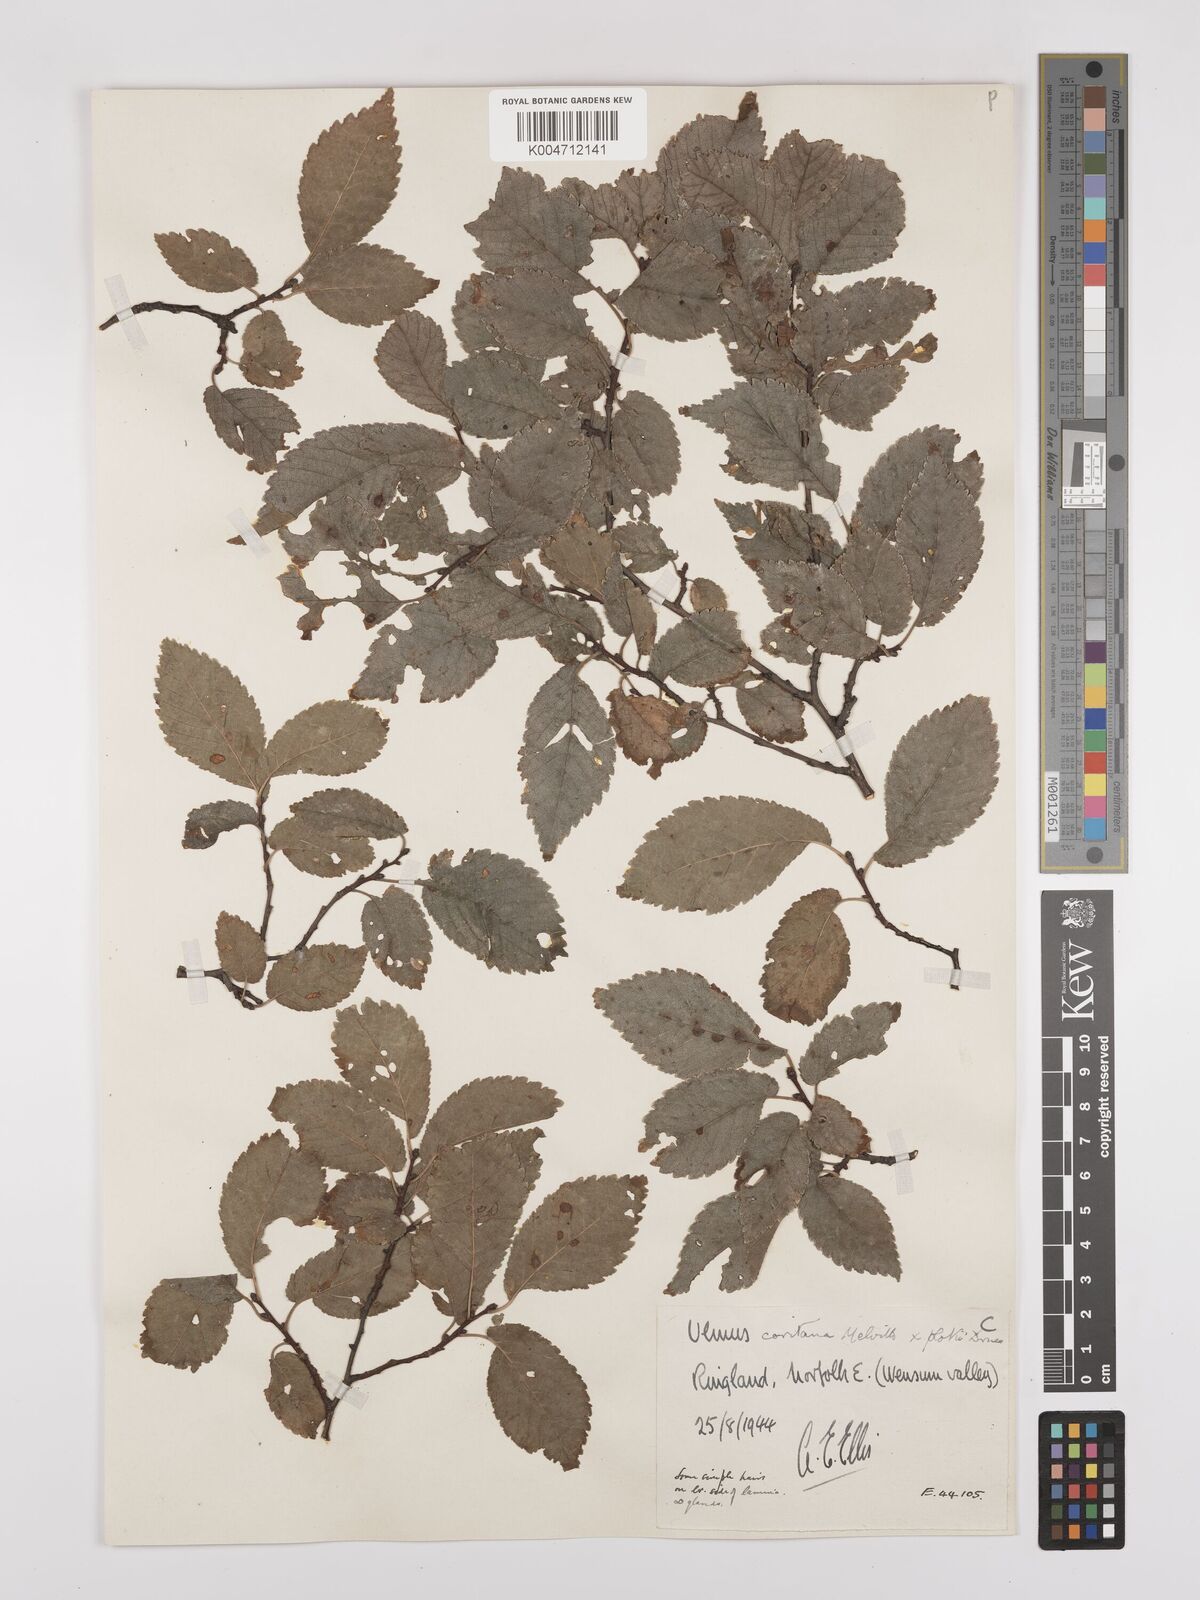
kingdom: Plantae
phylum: Tracheophyta
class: Magnoliopsida
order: Rosales
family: Ulmaceae
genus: Ulmus
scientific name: Ulmus minor
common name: Small-leaved elm
